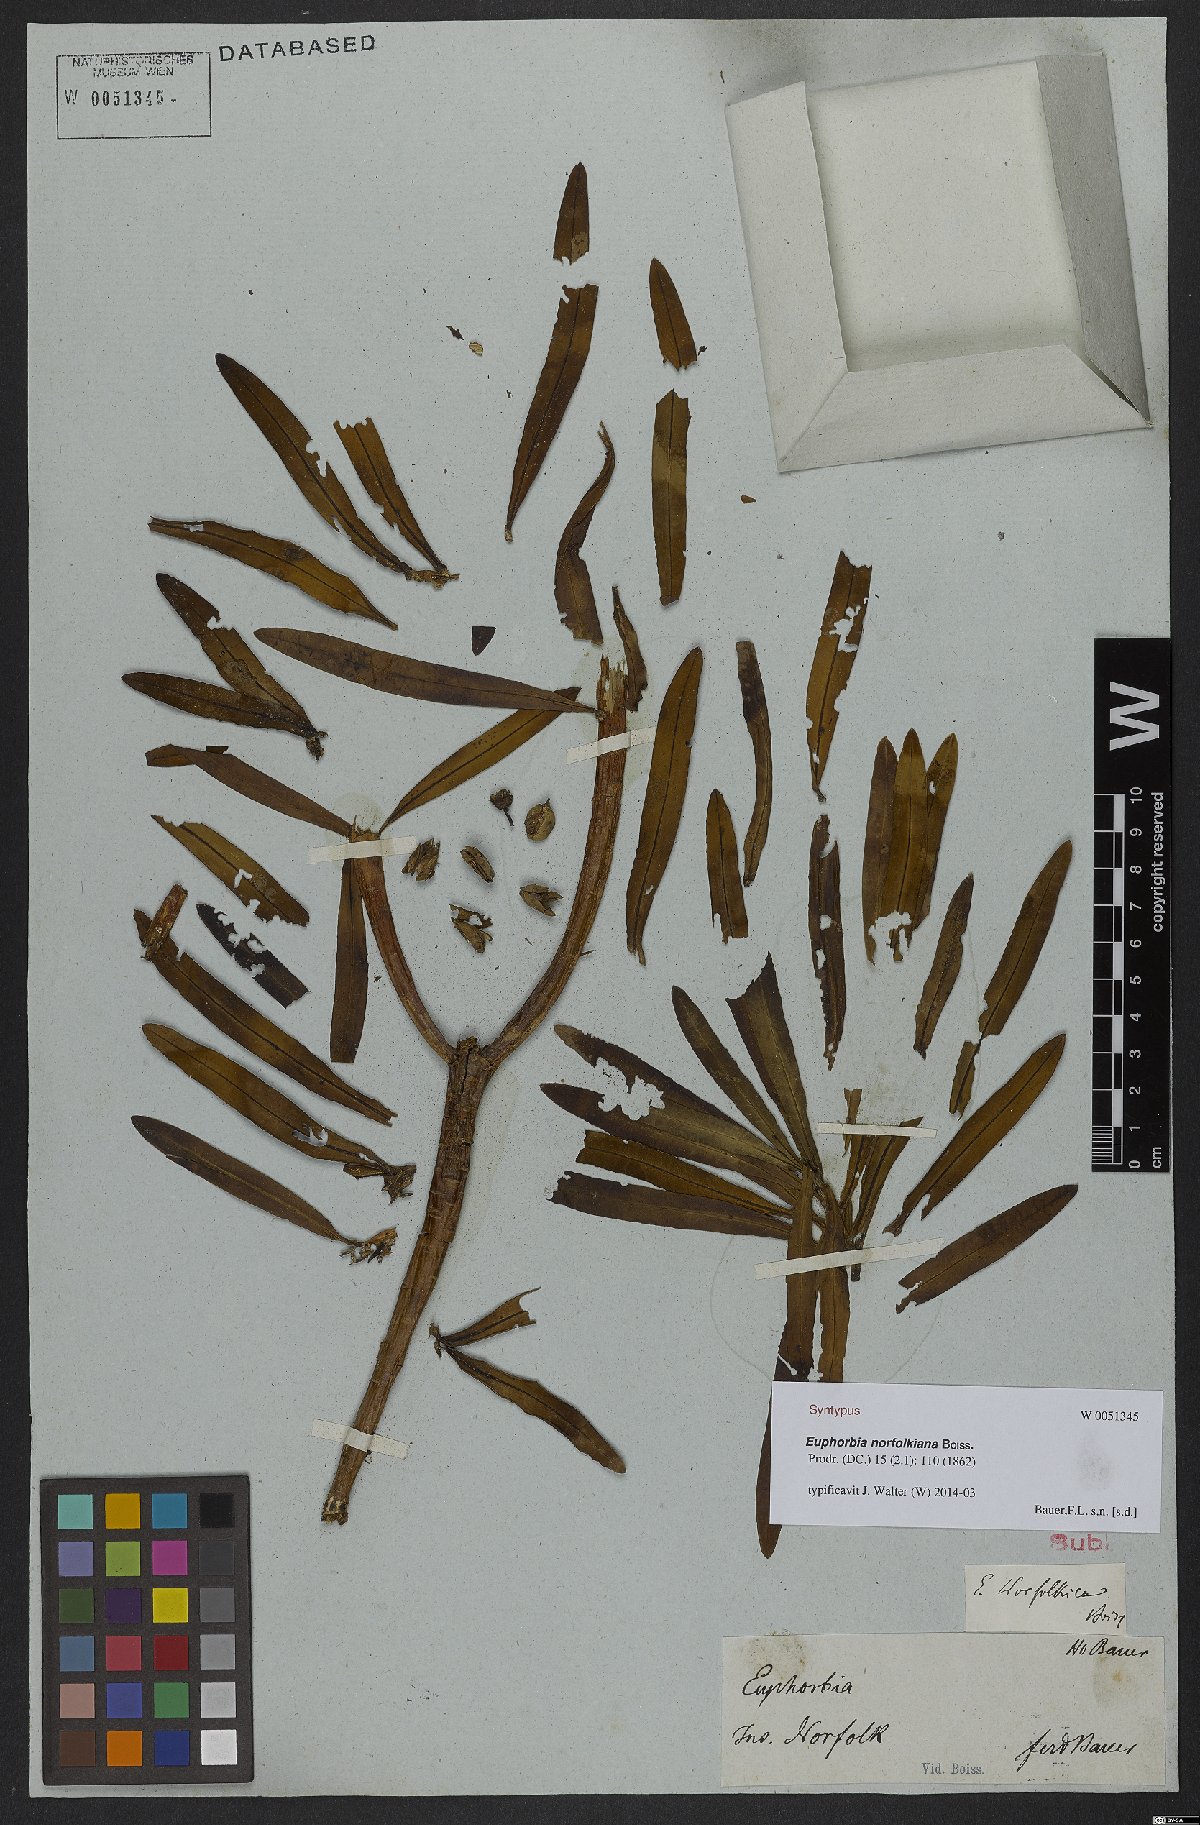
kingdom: Plantae
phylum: Tracheophyta
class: Magnoliopsida
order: Malpighiales
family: Euphorbiaceae
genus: Euphorbia
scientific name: Euphorbia norfolkiana
